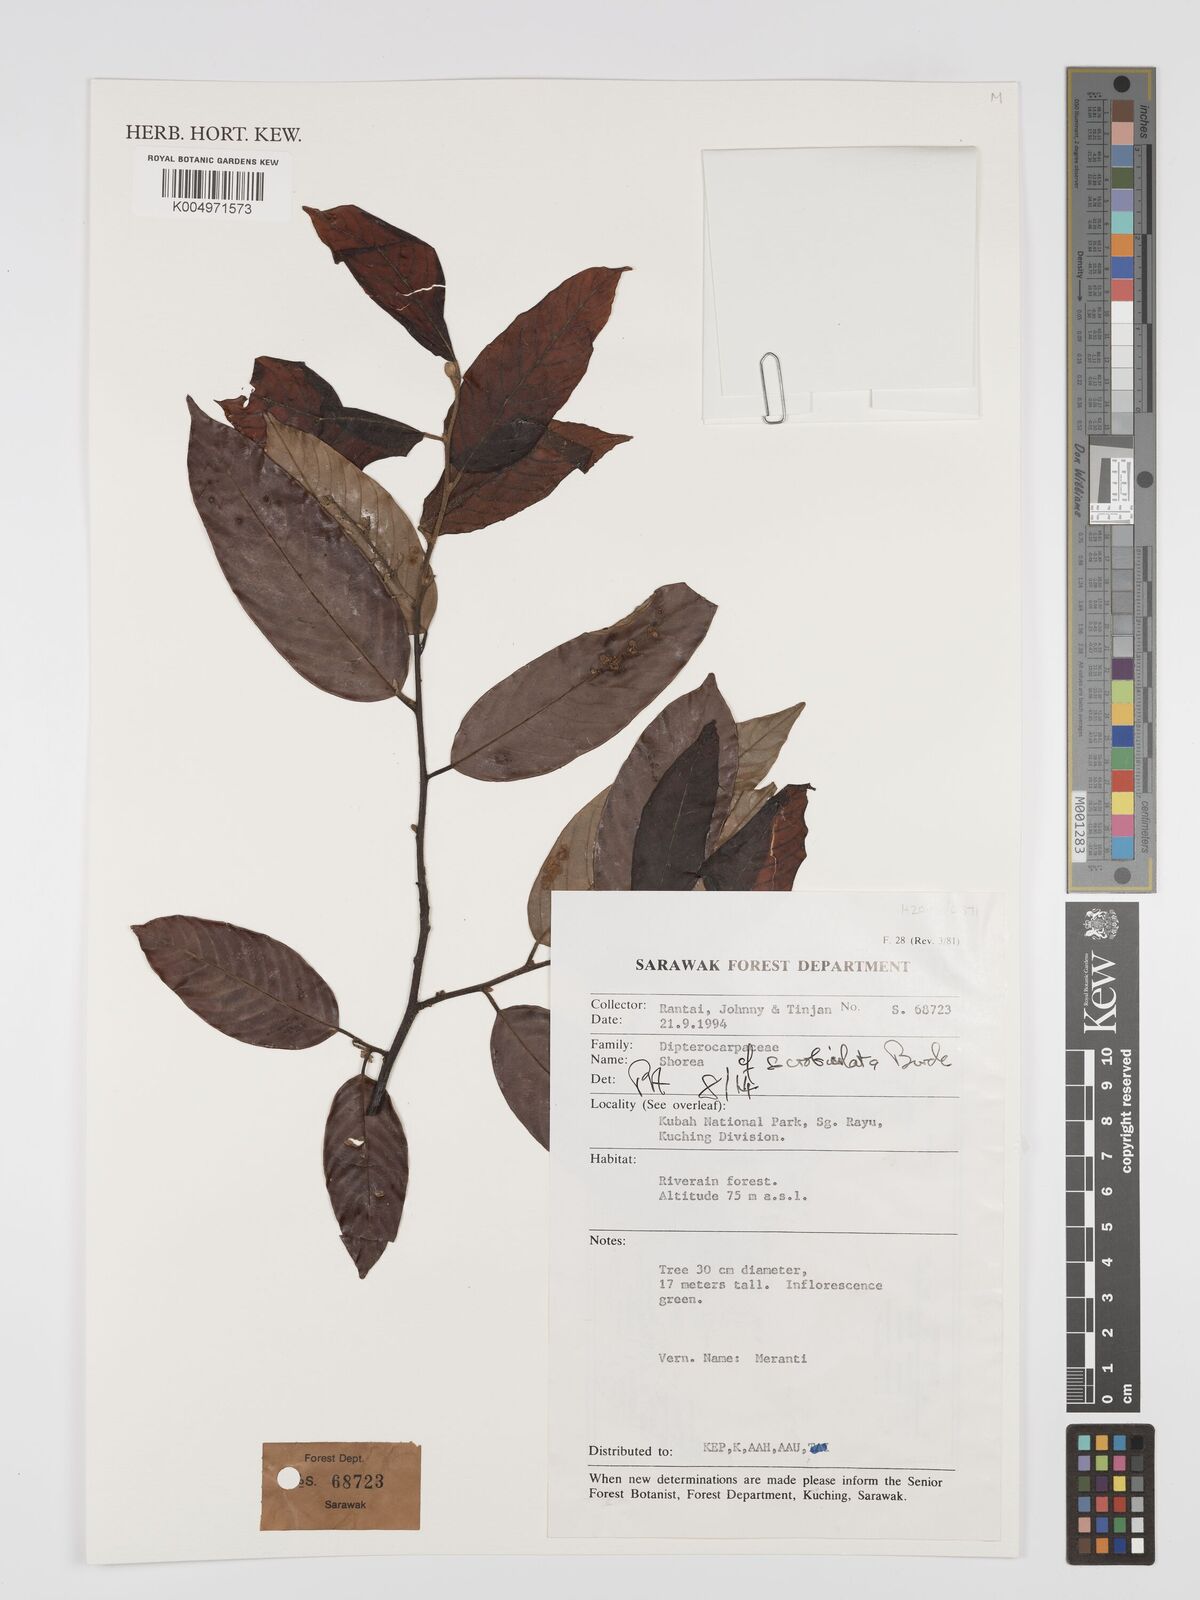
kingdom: Plantae
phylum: Tracheophyta
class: Magnoliopsida
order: Malvales
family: Dipterocarpaceae
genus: Shorea
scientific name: Shorea scrobiculata
